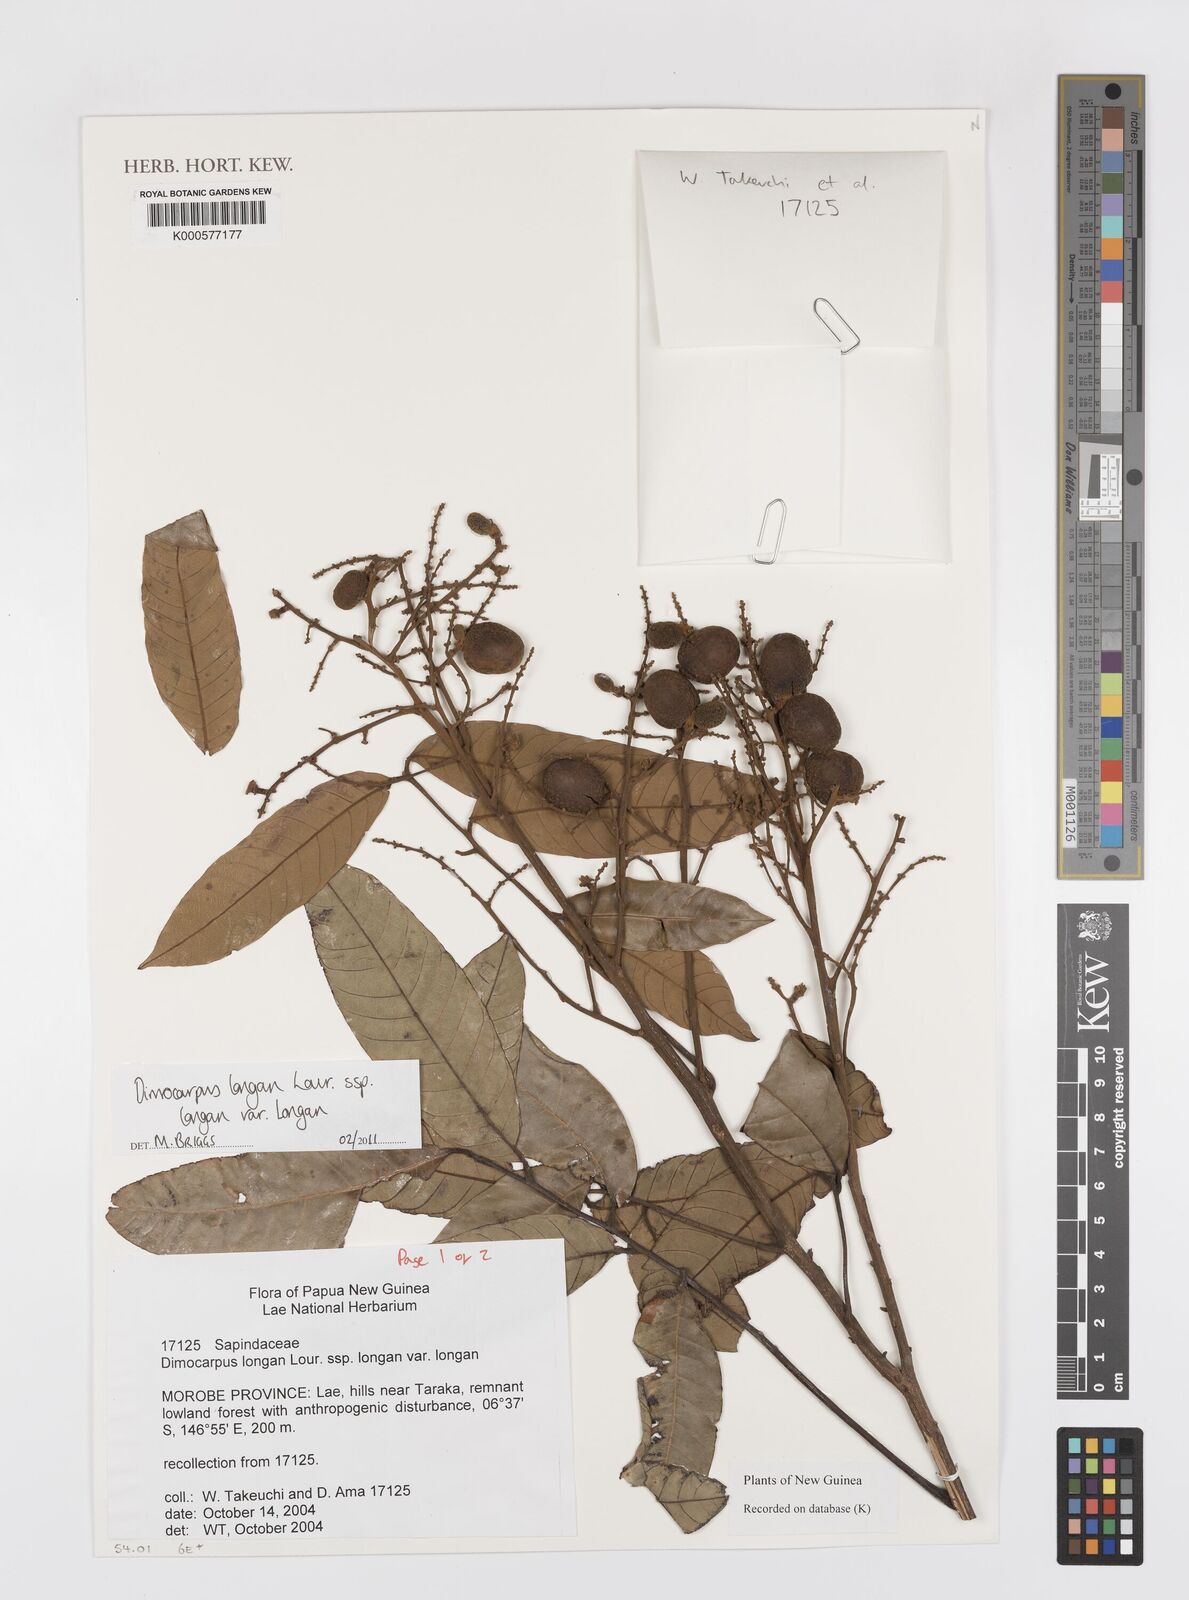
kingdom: Plantae
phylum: Tracheophyta
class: Magnoliopsida
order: Sapindales
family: Sapindaceae
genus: Dimocarpus
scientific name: Dimocarpus longan
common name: Longan
